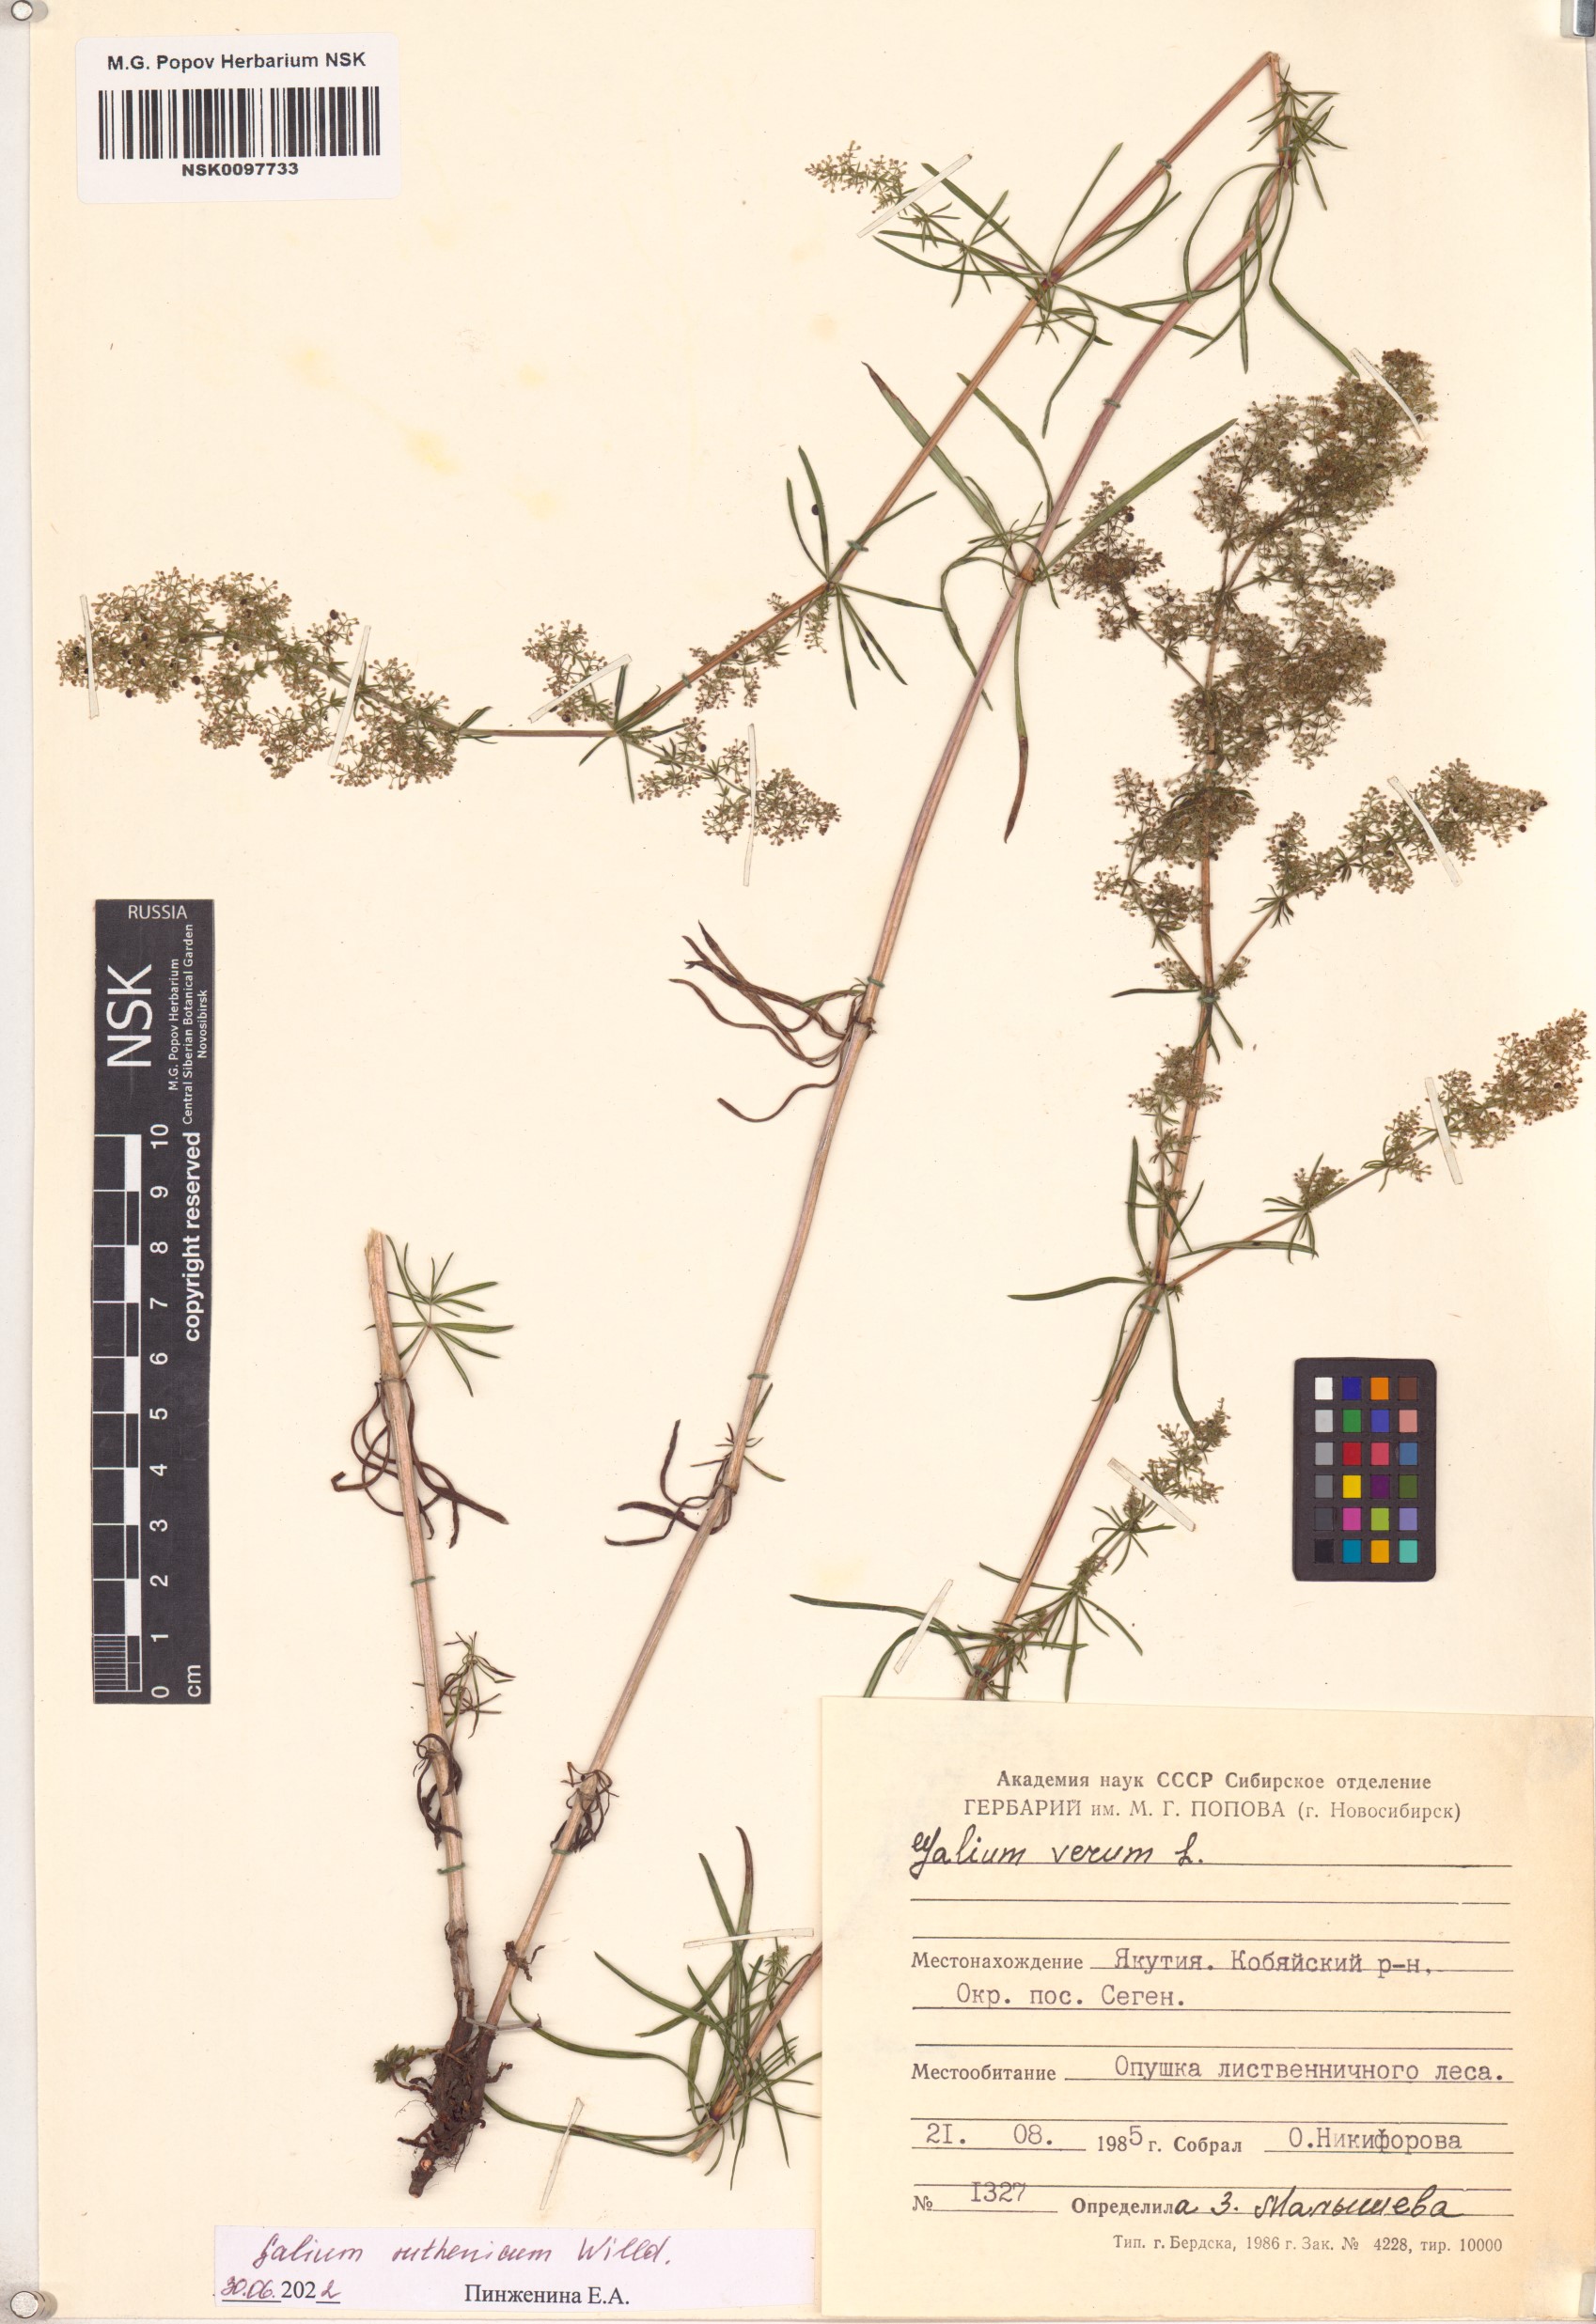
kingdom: Plantae
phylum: Tracheophyta
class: Magnoliopsida
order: Gentianales
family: Rubiaceae
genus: Galium
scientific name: Galium verum
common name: Lady's bedstraw
